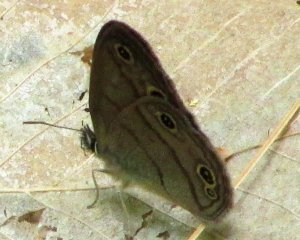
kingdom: Animalia
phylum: Arthropoda
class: Insecta
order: Lepidoptera
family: Nymphalidae
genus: Euptychia
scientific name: Euptychia cymela
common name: Little Wood Satyr
